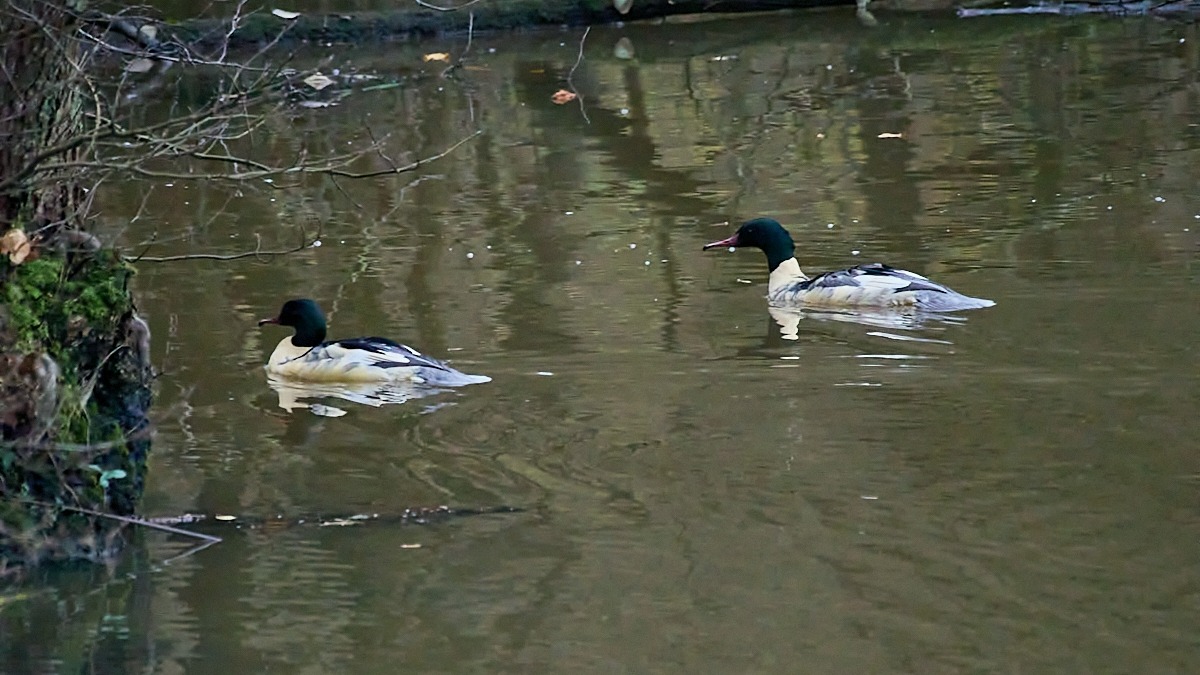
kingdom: Animalia
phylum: Chordata
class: Aves
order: Anseriformes
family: Anatidae
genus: Mergus
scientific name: Mergus merganser
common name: Stor skallesluger
